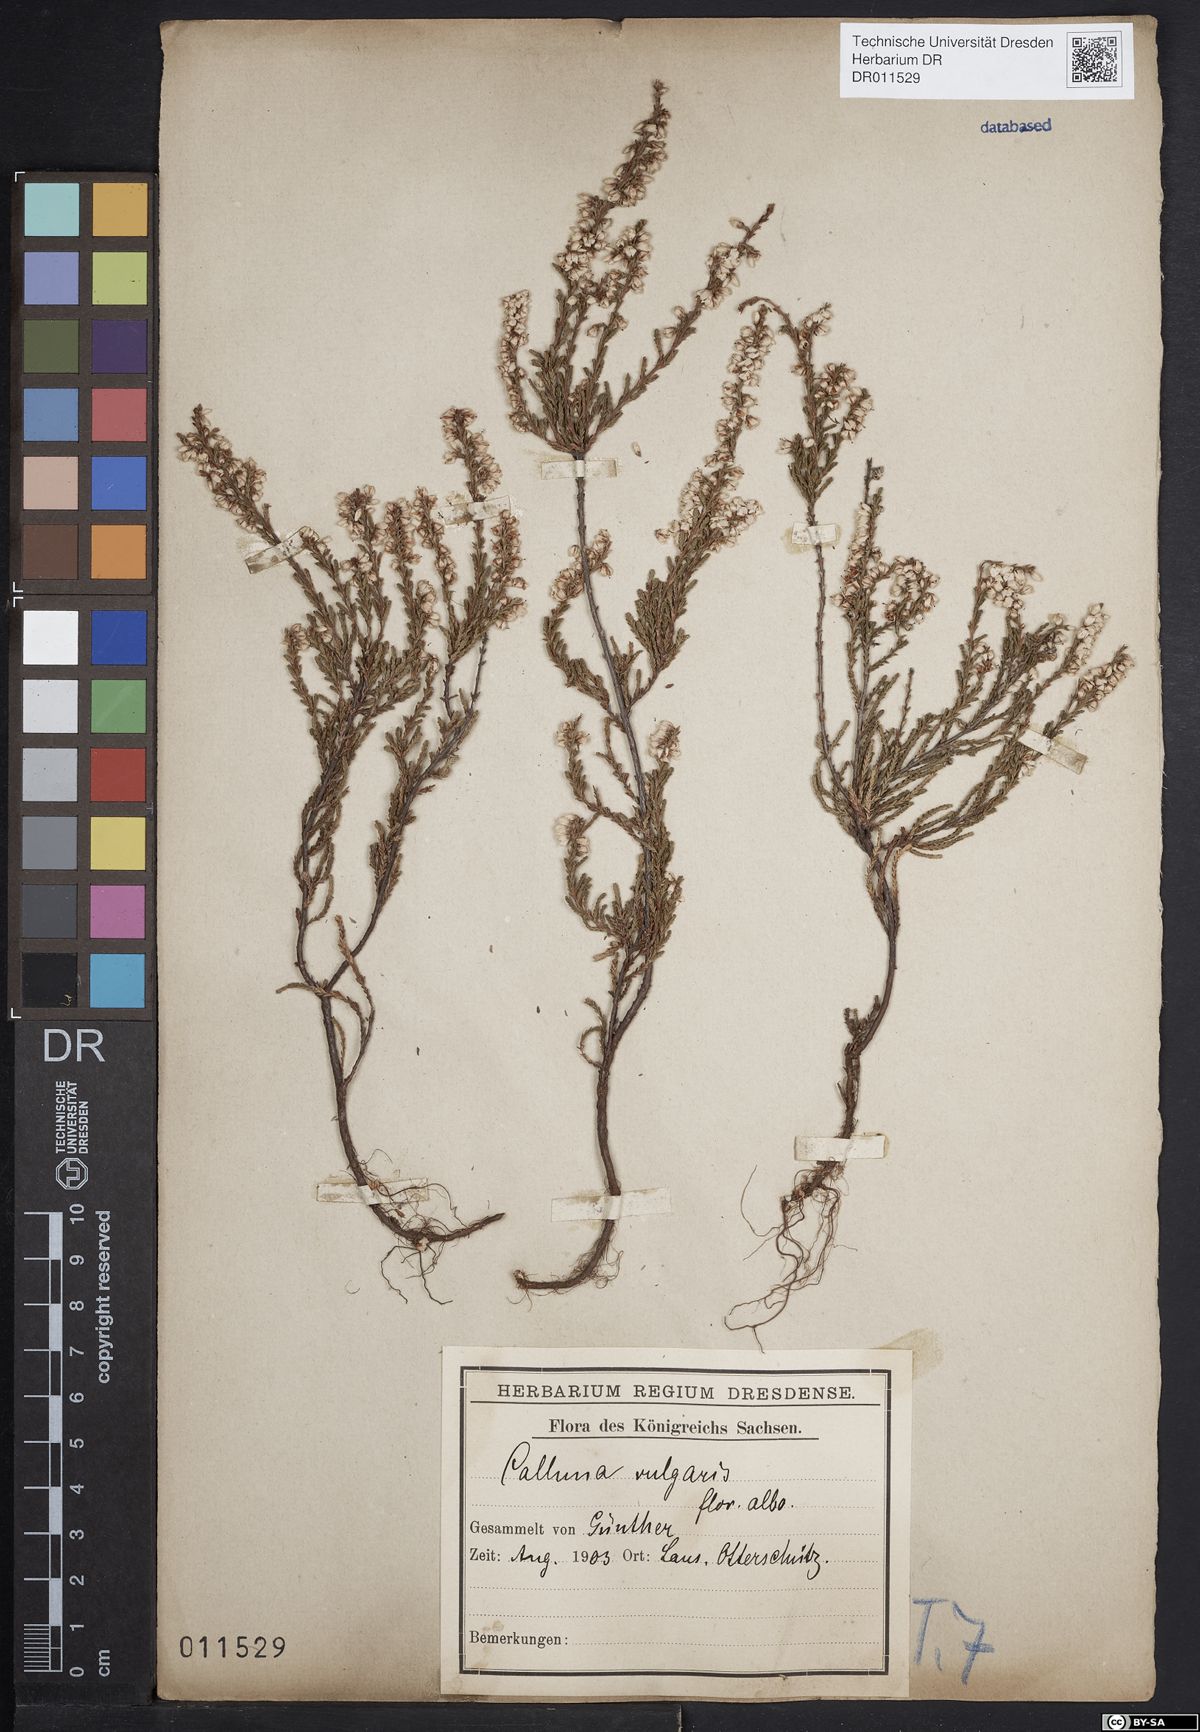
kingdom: Plantae
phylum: Tracheophyta
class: Magnoliopsida
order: Ericales
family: Ericaceae
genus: Calluna
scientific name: Calluna vulgaris
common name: Heather
